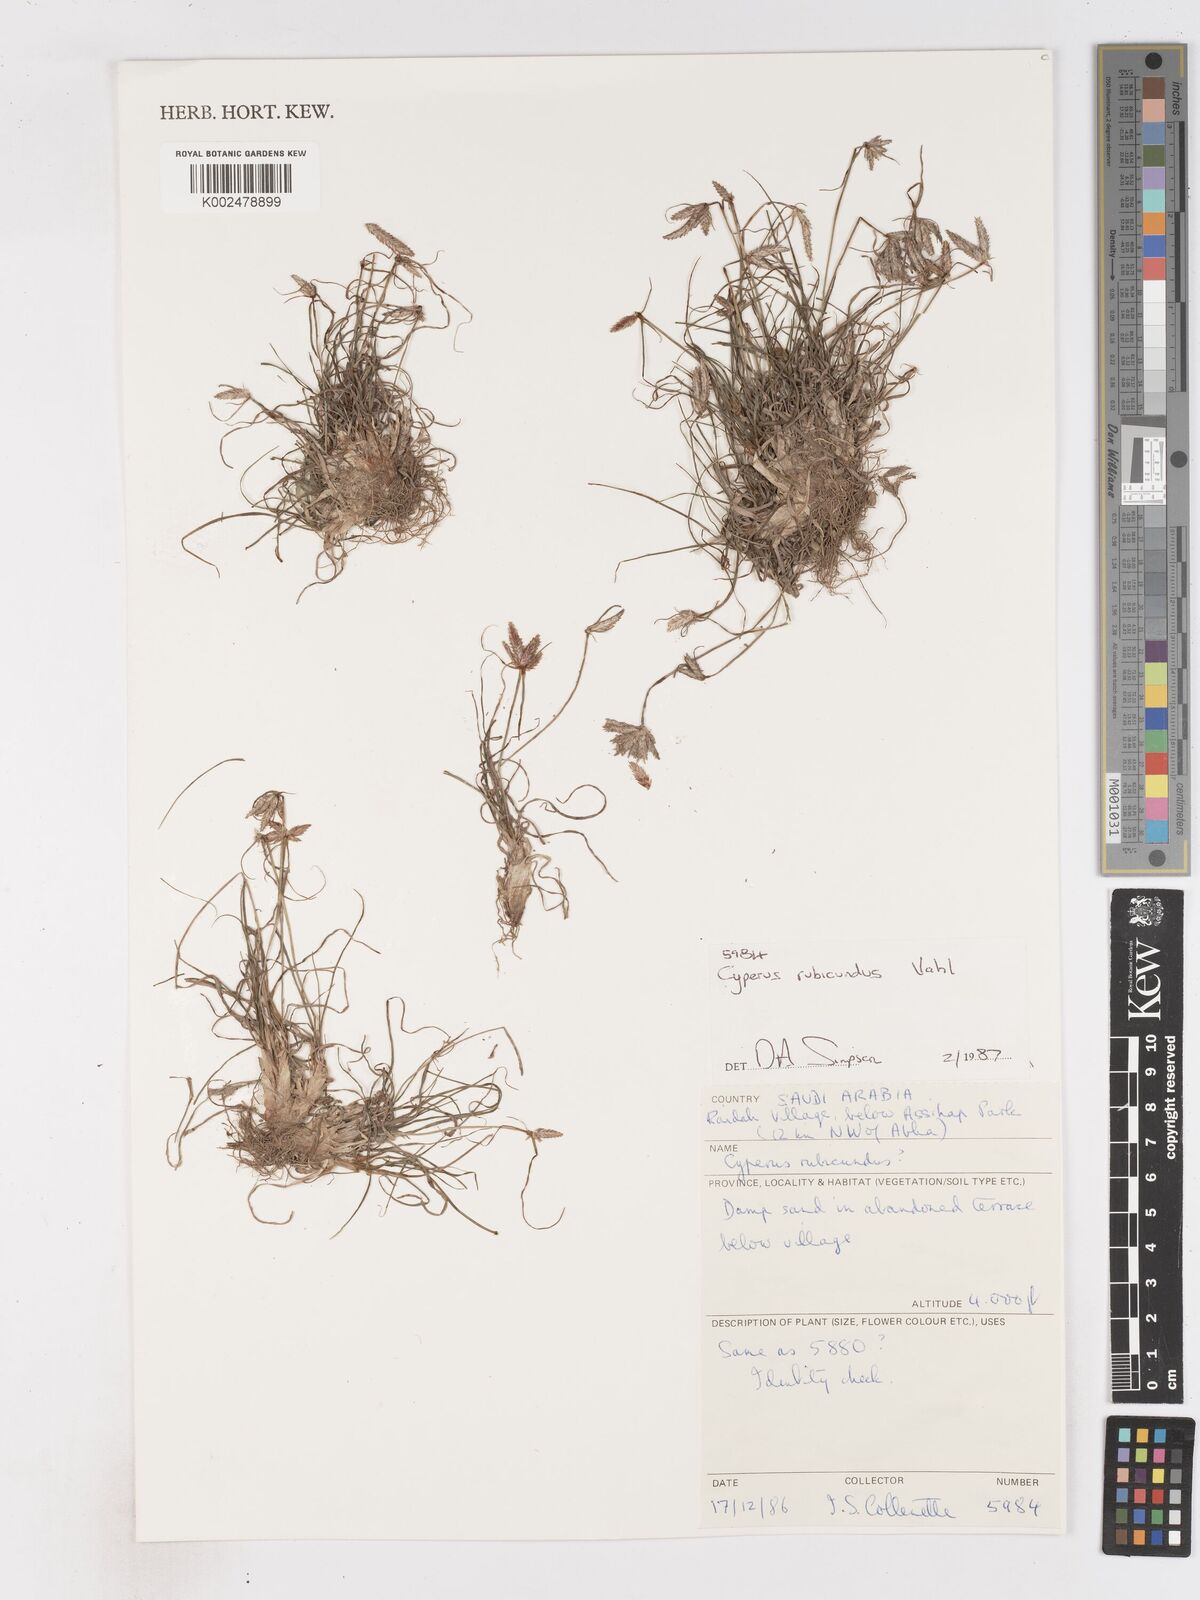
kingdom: Plantae
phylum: Tracheophyta
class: Liliopsida
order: Poales
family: Cyperaceae
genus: Cyperus
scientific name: Cyperus rubicundus
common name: Coco-grass
